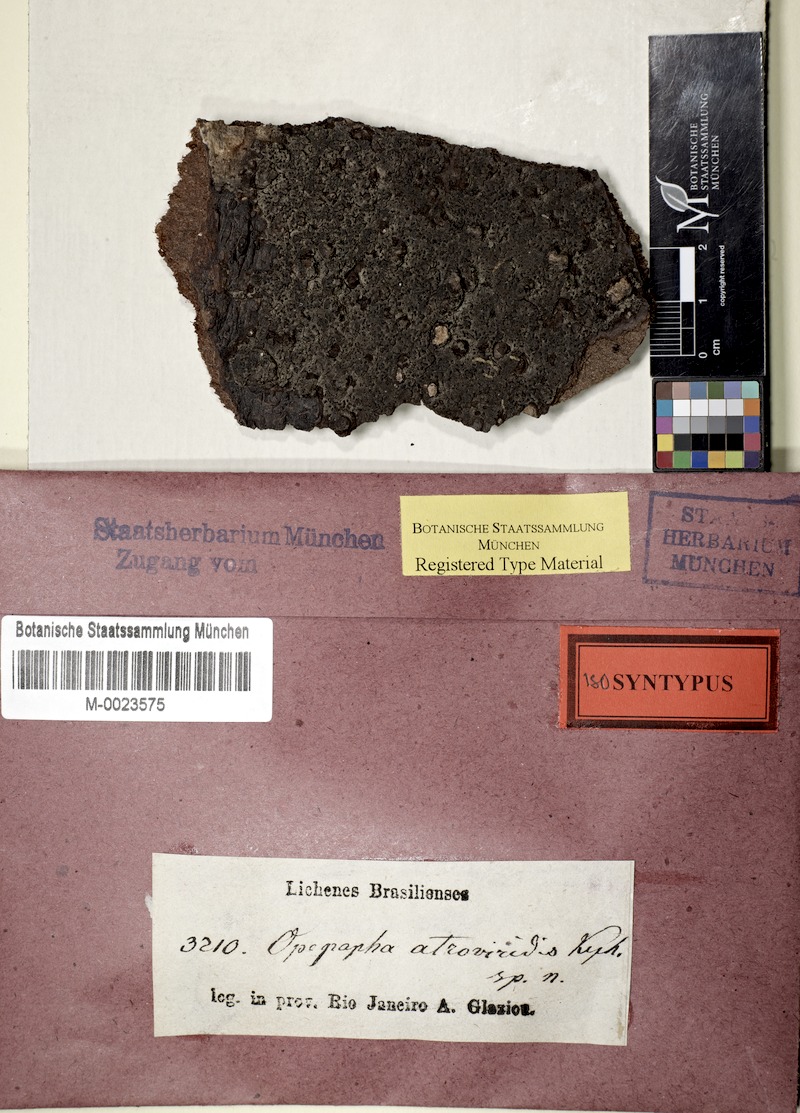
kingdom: Fungi
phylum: Ascomycota
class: Arthoniomycetes
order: Arthoniales
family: Opegraphaceae
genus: Opegrapha
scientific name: Opegrapha
